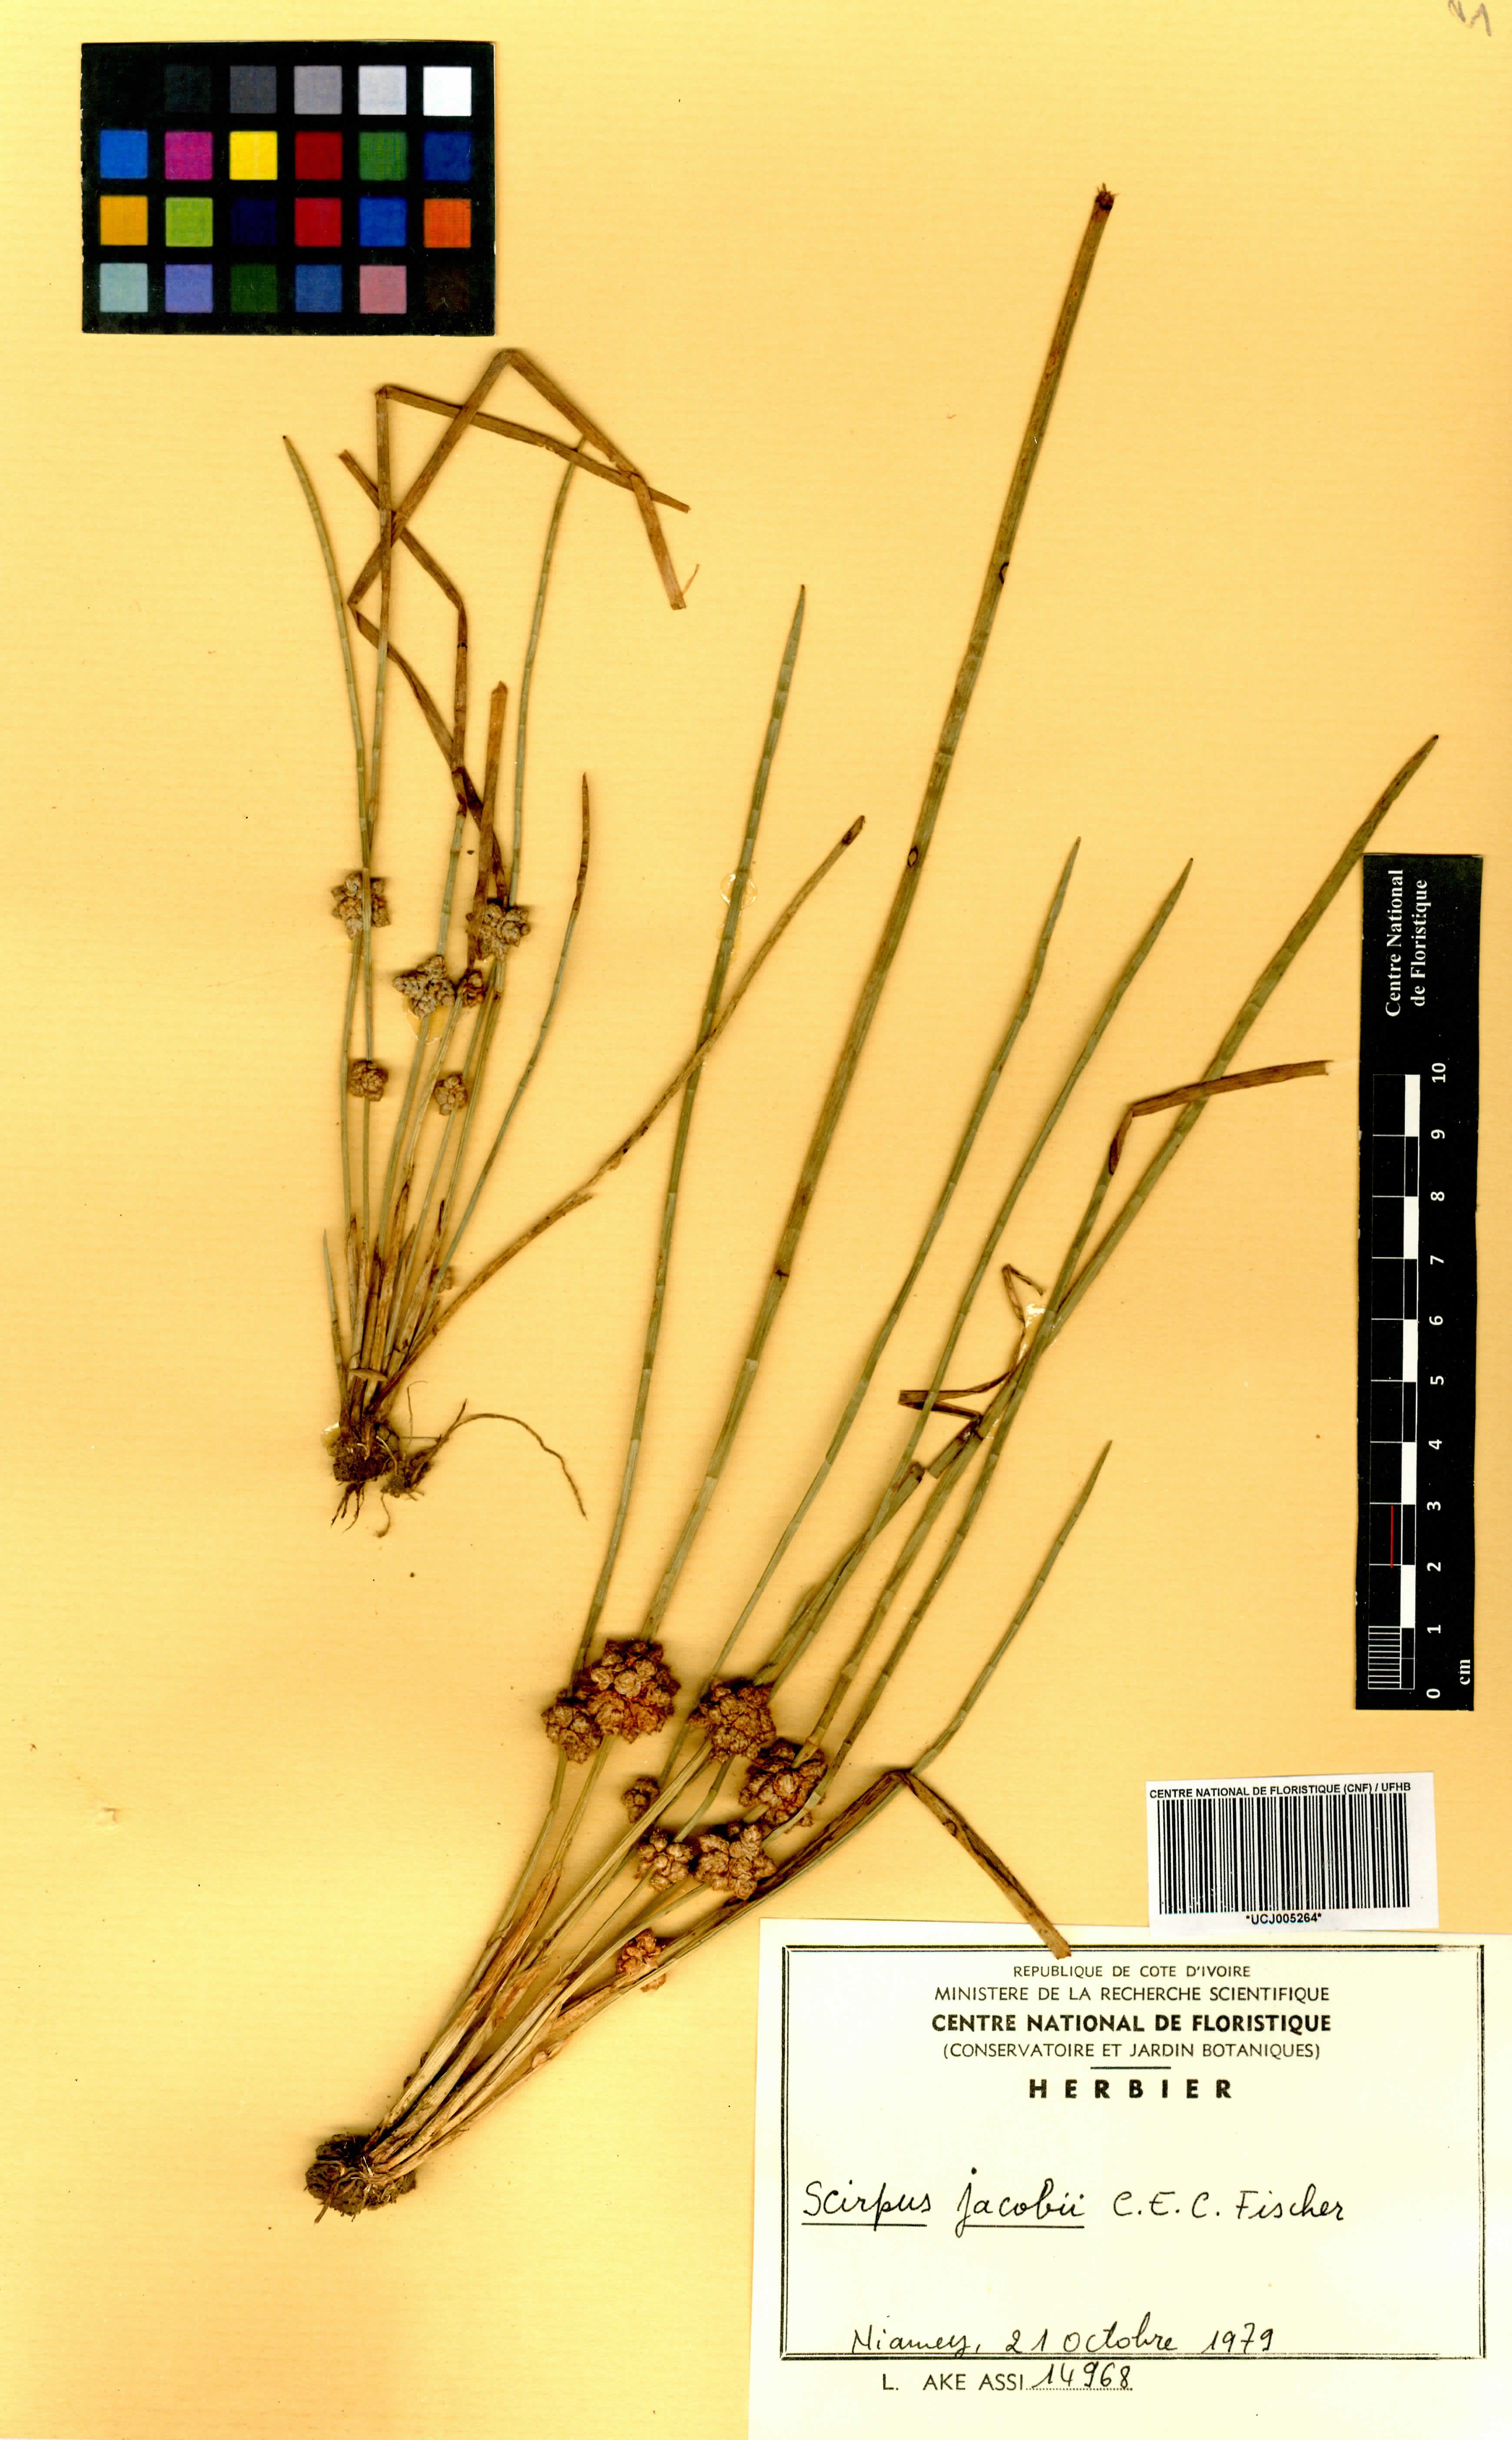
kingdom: Plantae
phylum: Tracheophyta
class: Liliopsida
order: Poales
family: Cyperaceae
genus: Schoenoplectiella
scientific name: Schoenoplectiella senegalensis
